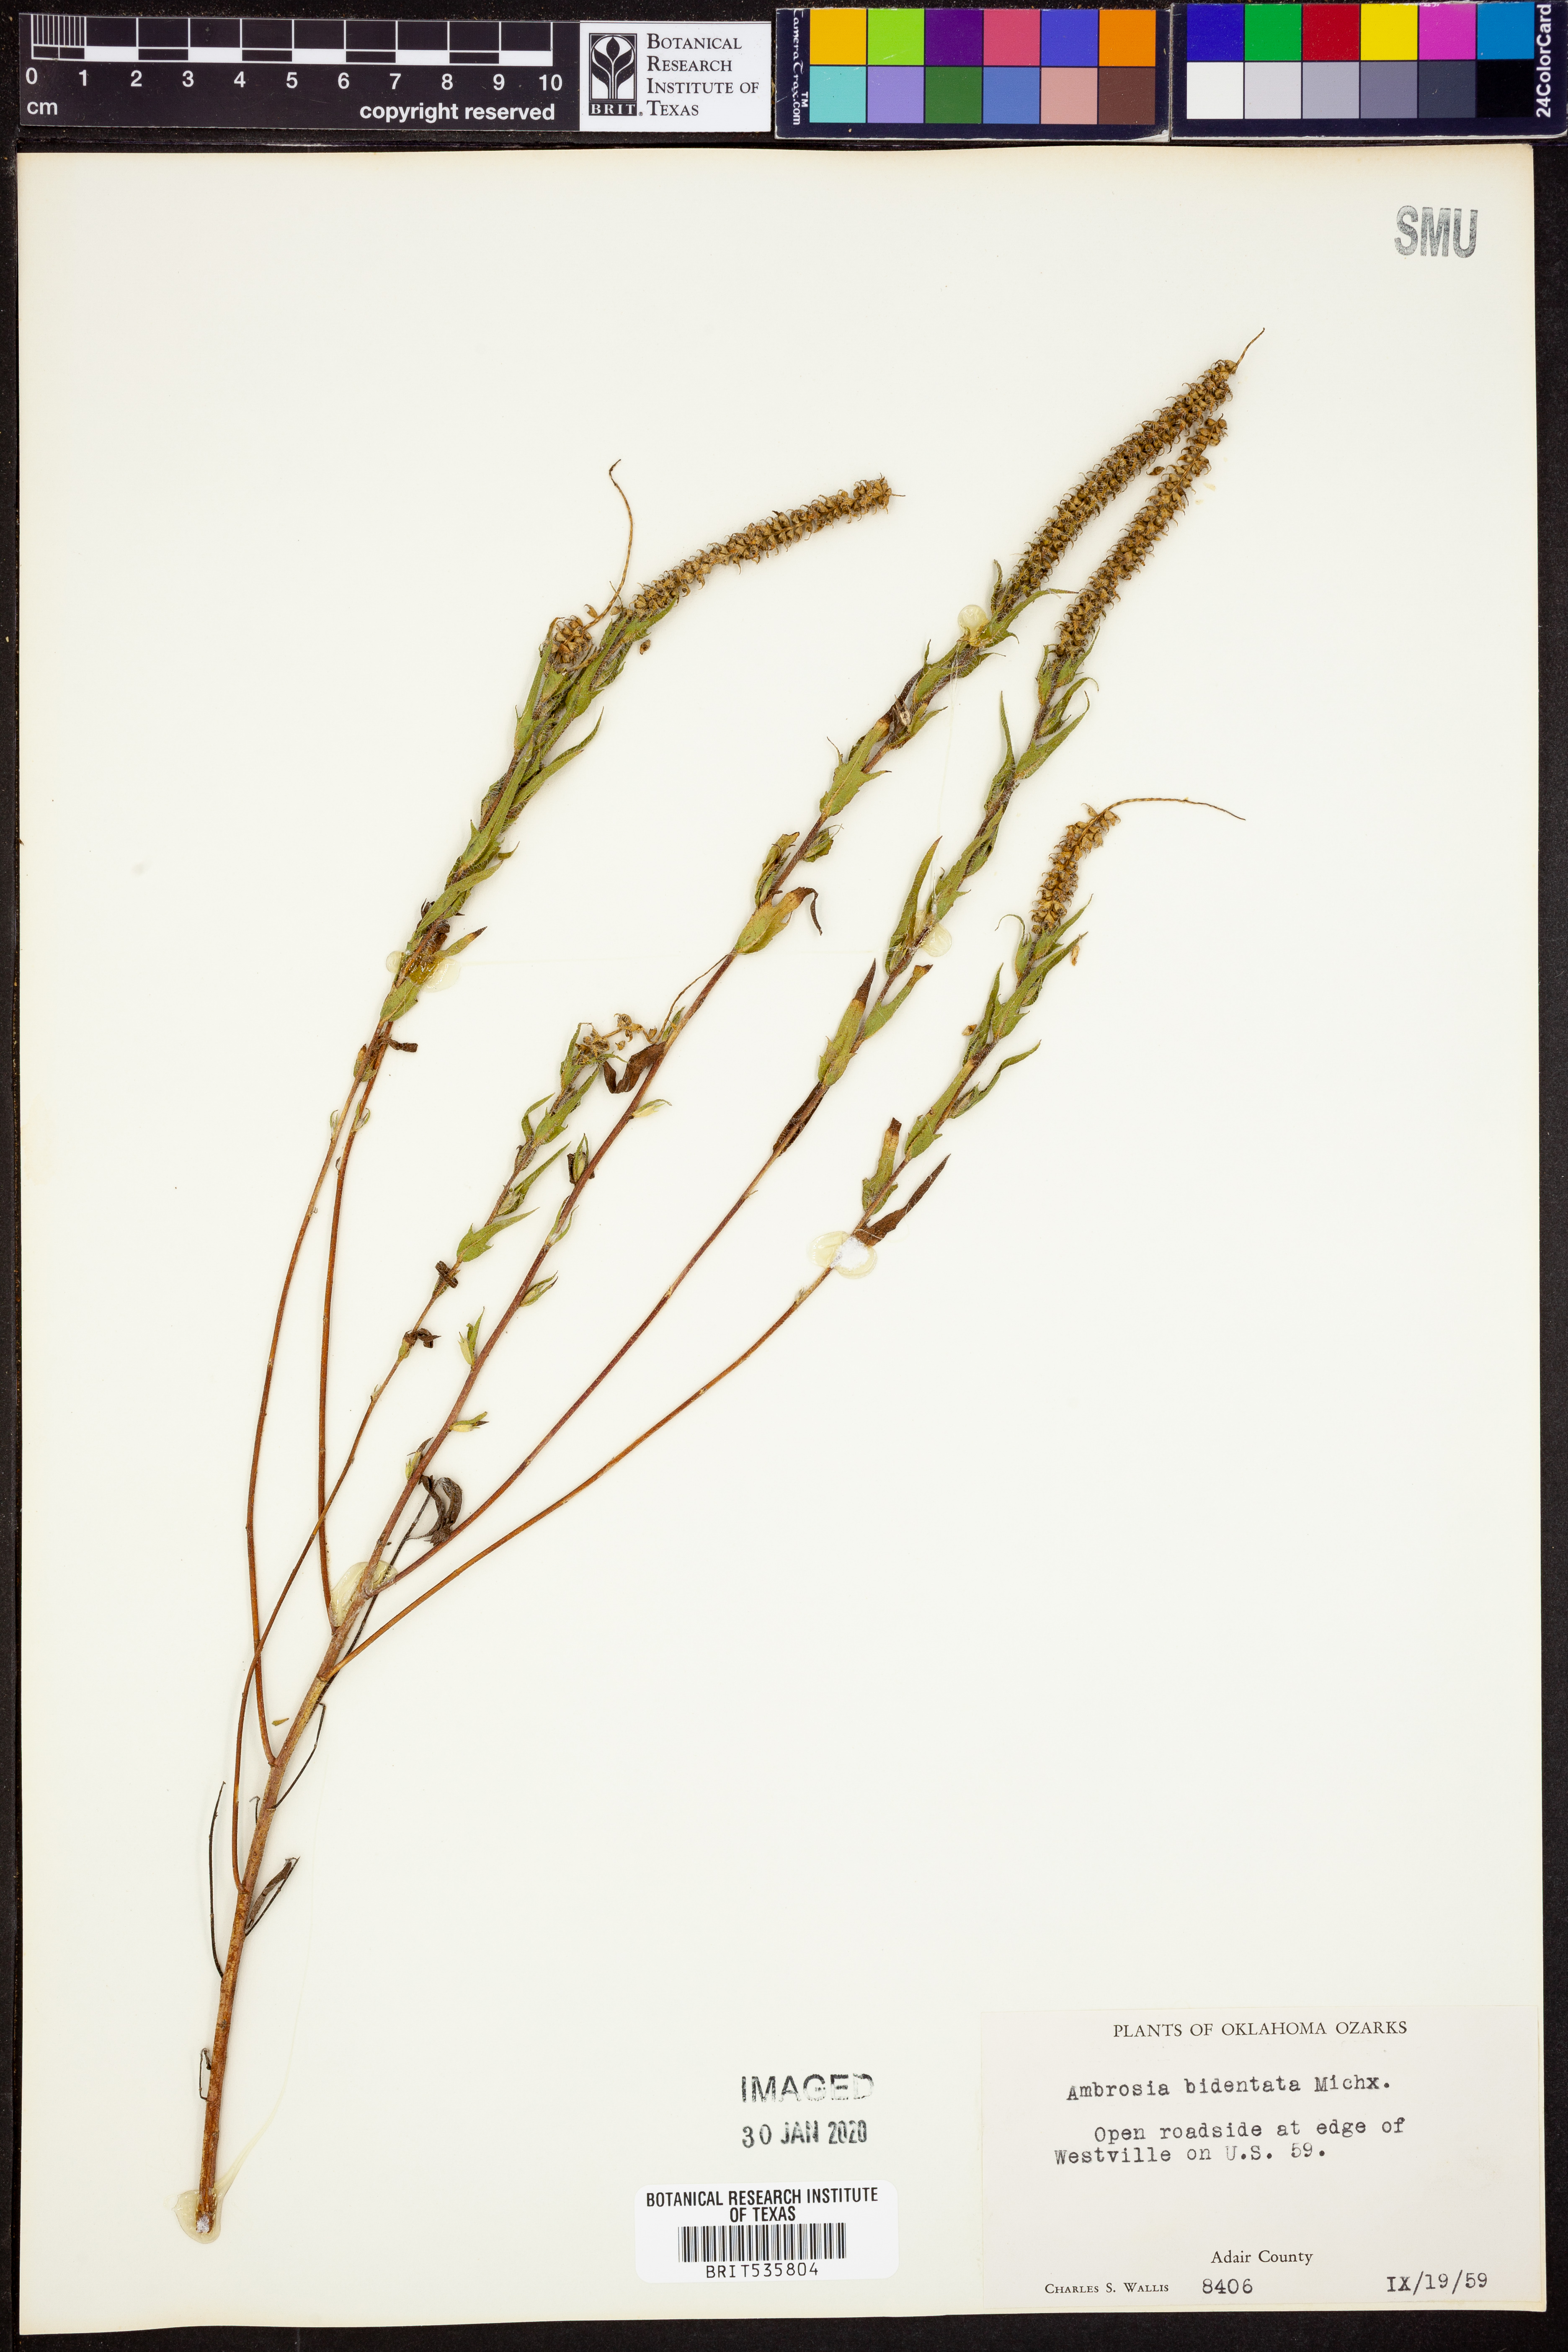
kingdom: Plantae
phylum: Tracheophyta
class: Magnoliopsida
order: Asterales
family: Asteraceae
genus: Ambrosia
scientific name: Ambrosia bidentata
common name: Southern ragweed
